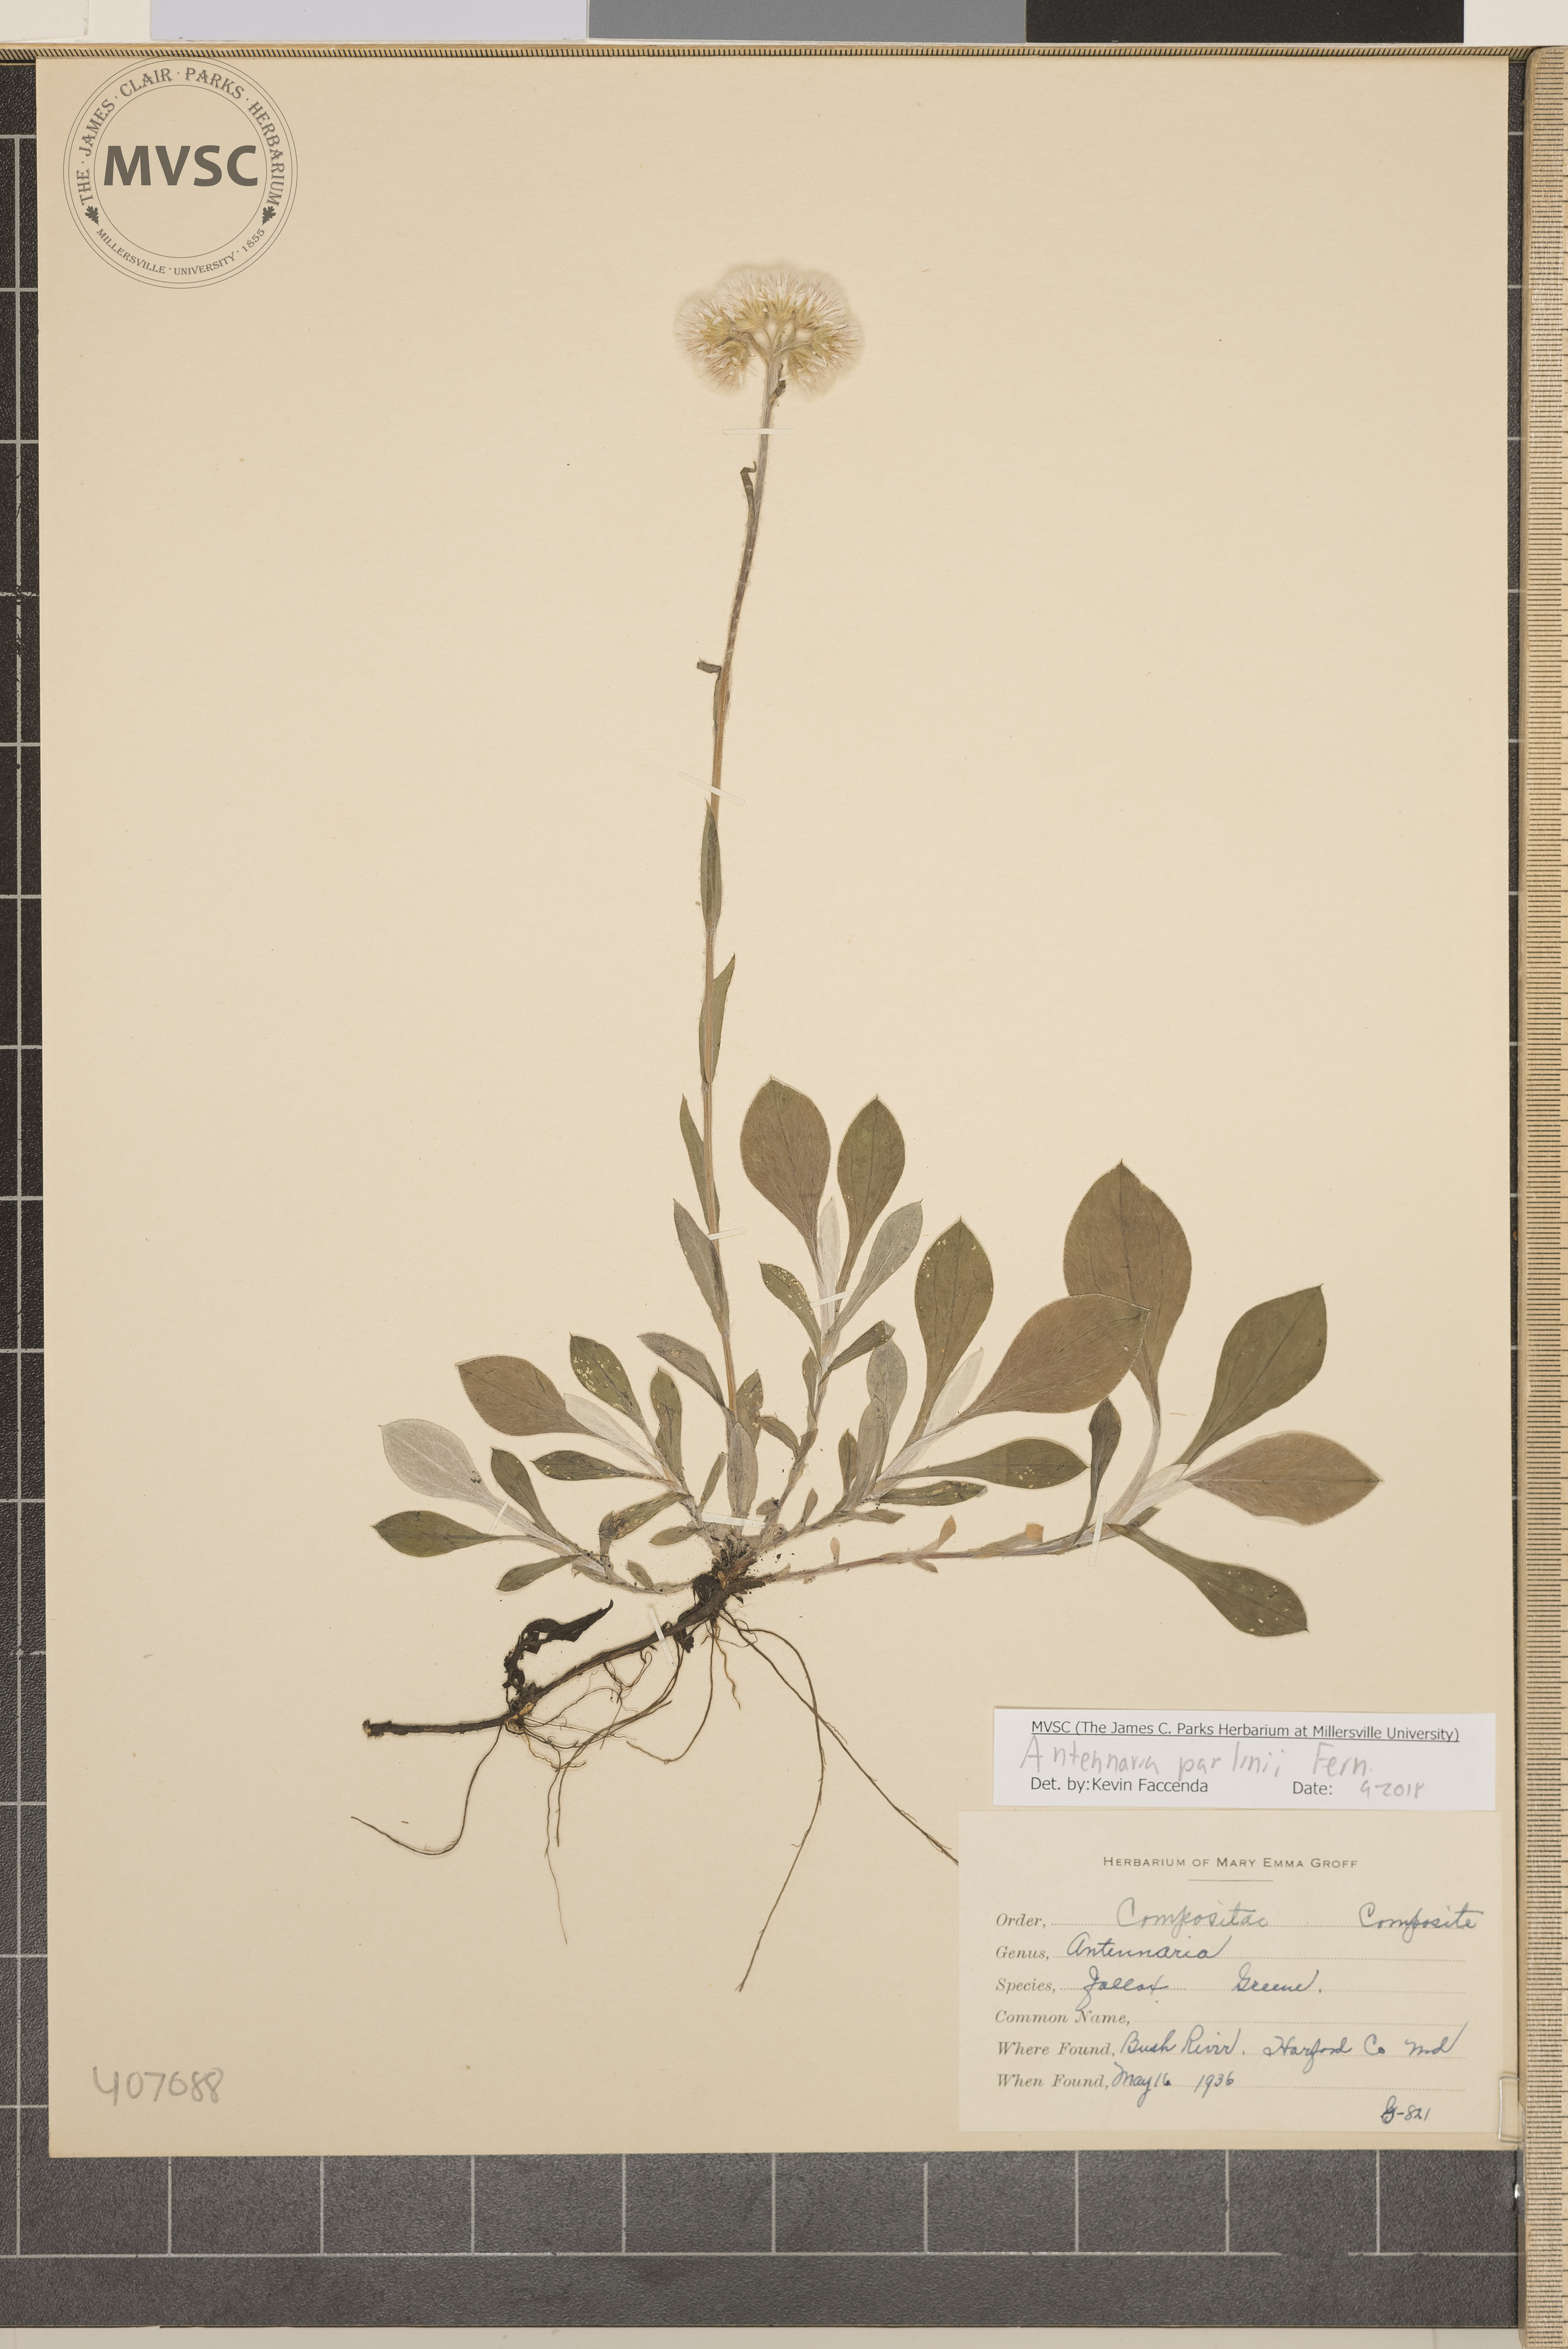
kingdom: Plantae
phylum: Tracheophyta
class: Magnoliopsida
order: Asterales
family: Asteraceae
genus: Antennaria
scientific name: Antennaria parlinii
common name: Parlin's pussytoes
